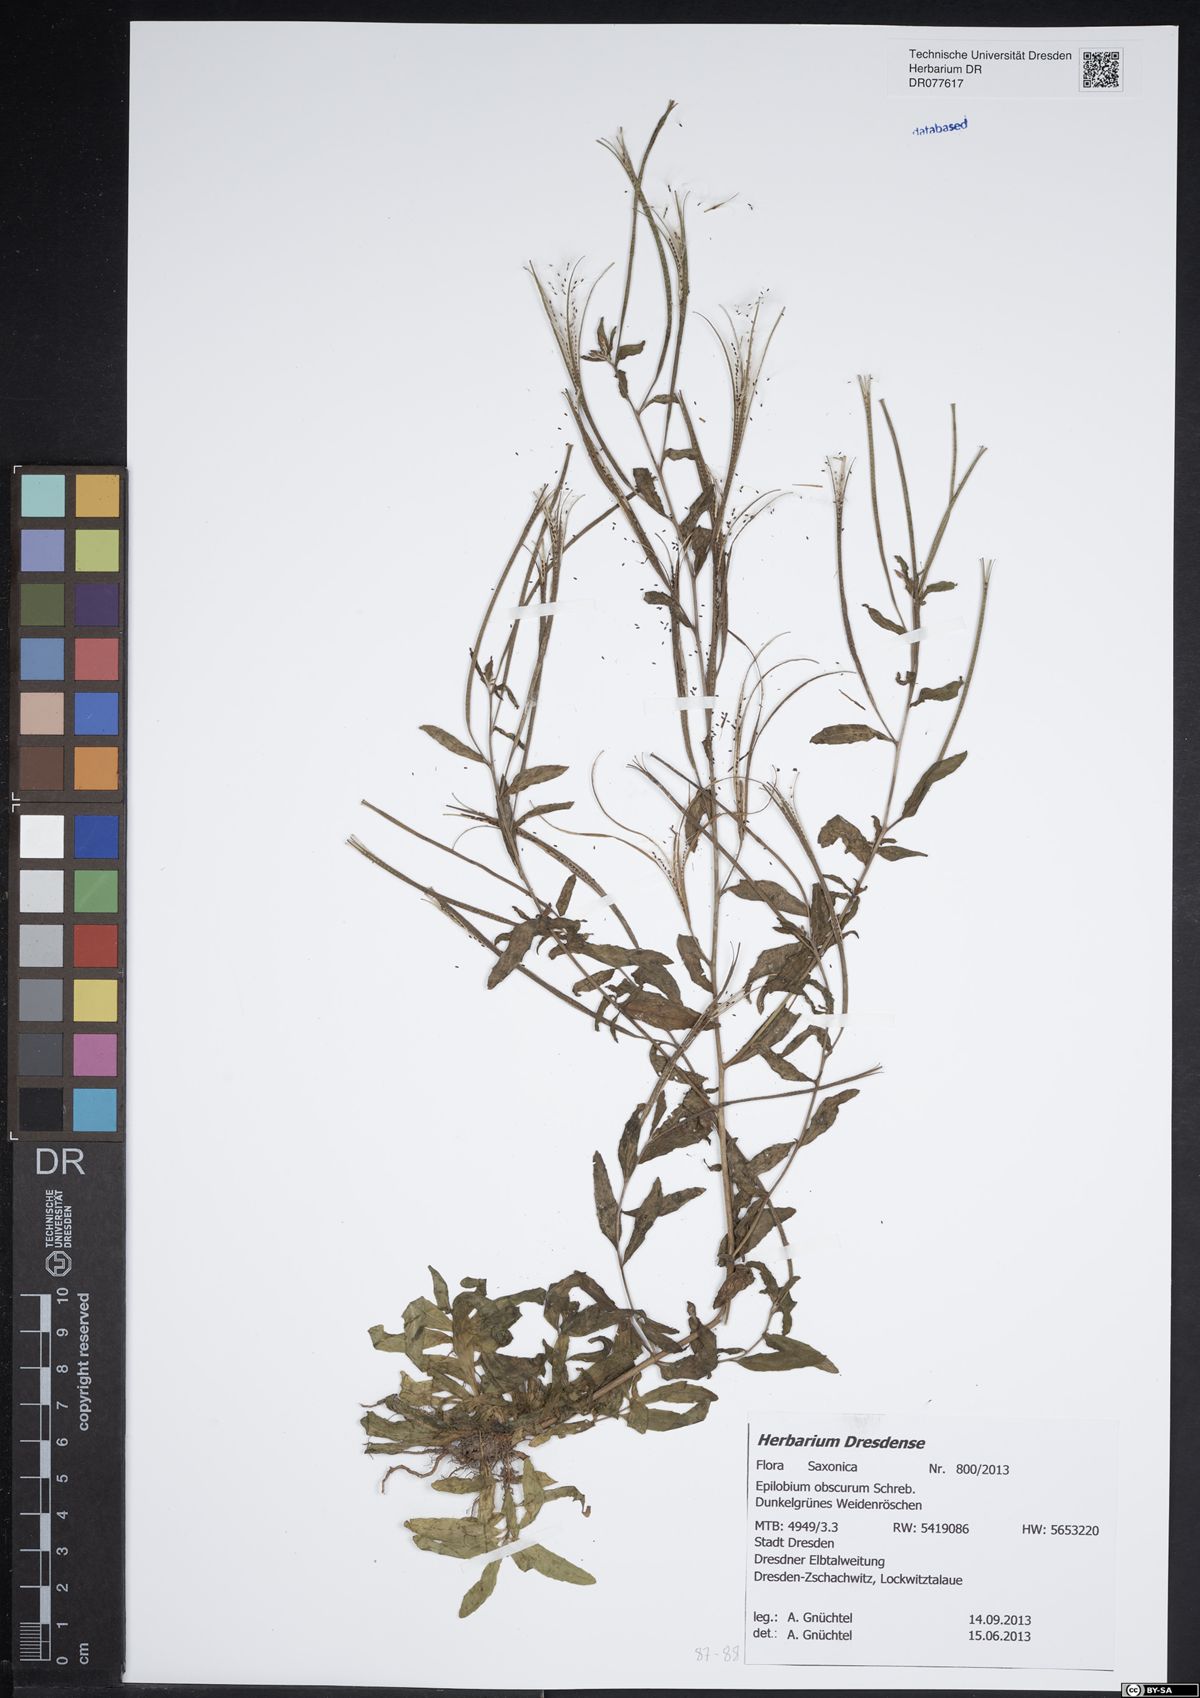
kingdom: Plantae
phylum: Tracheophyta
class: Magnoliopsida
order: Myrtales
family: Onagraceae
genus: Epilobium
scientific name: Epilobium obscurum
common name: Short-fruited willowherb
